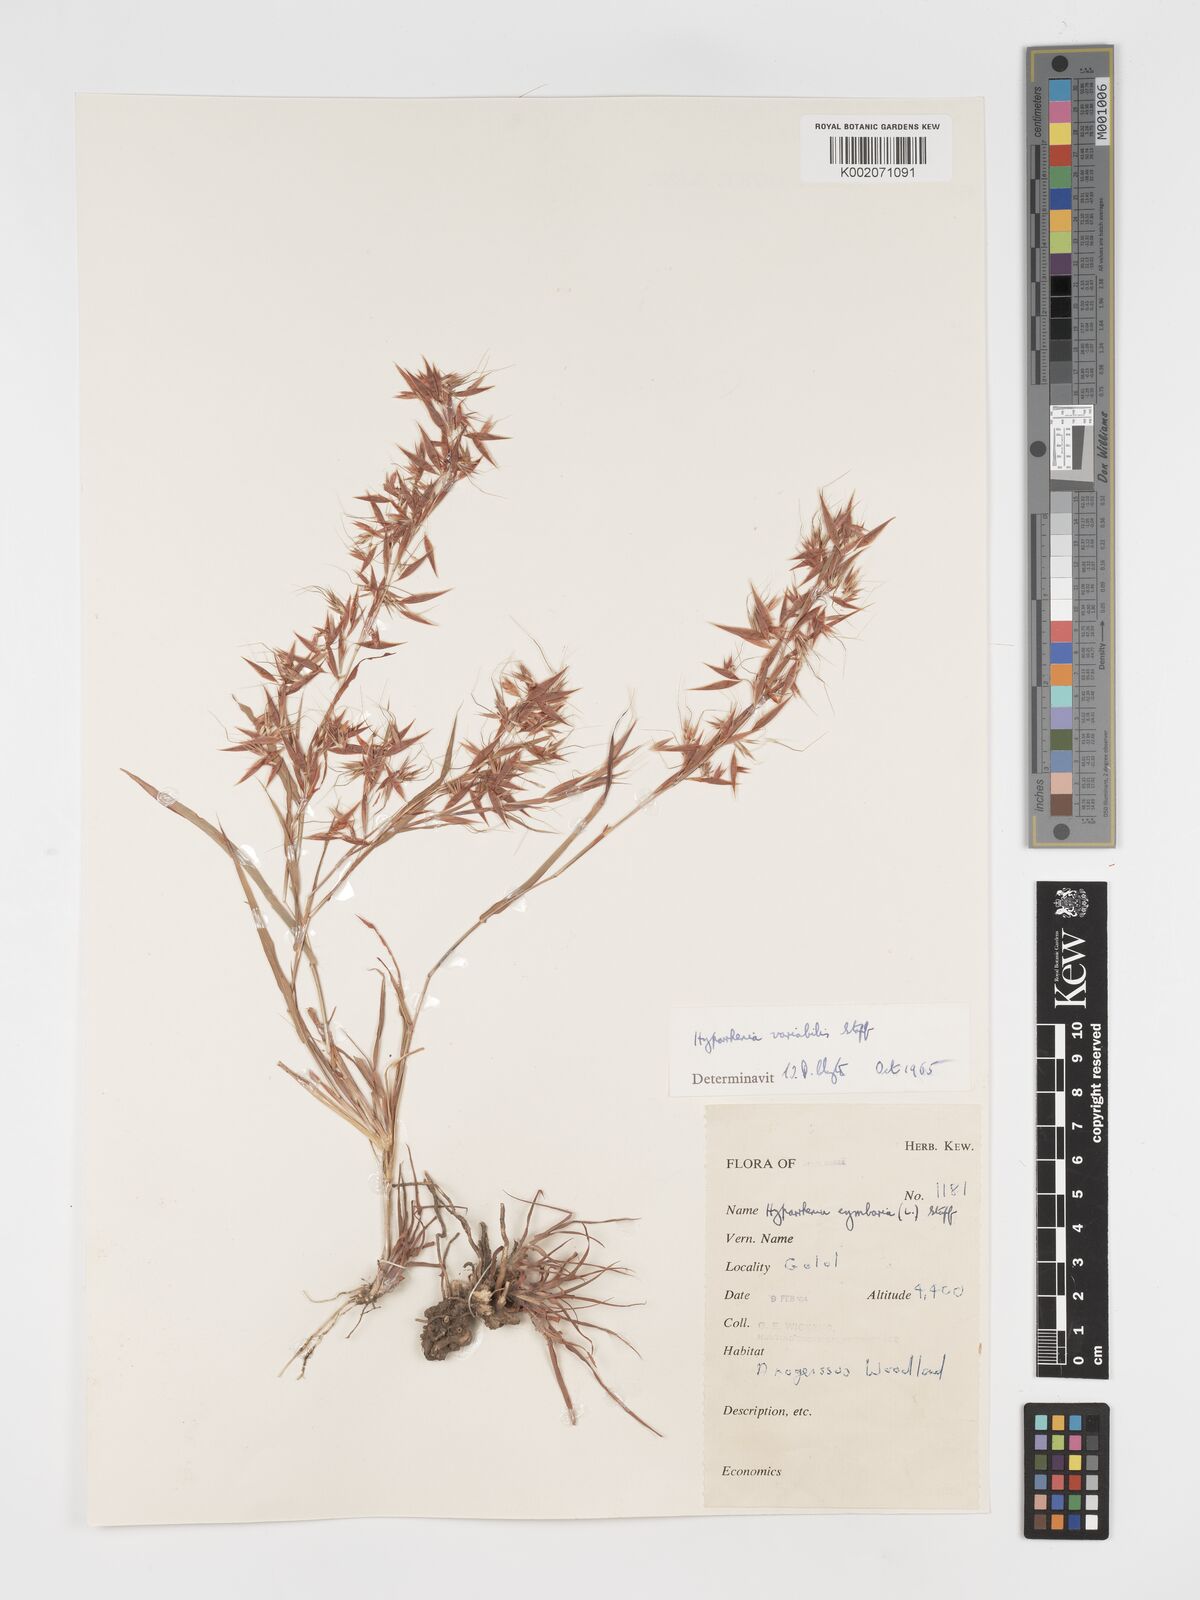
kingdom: Plantae
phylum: Tracheophyta
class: Liliopsida
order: Poales
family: Poaceae
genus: Hyparrhenia
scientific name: Hyparrhenia variabilis
